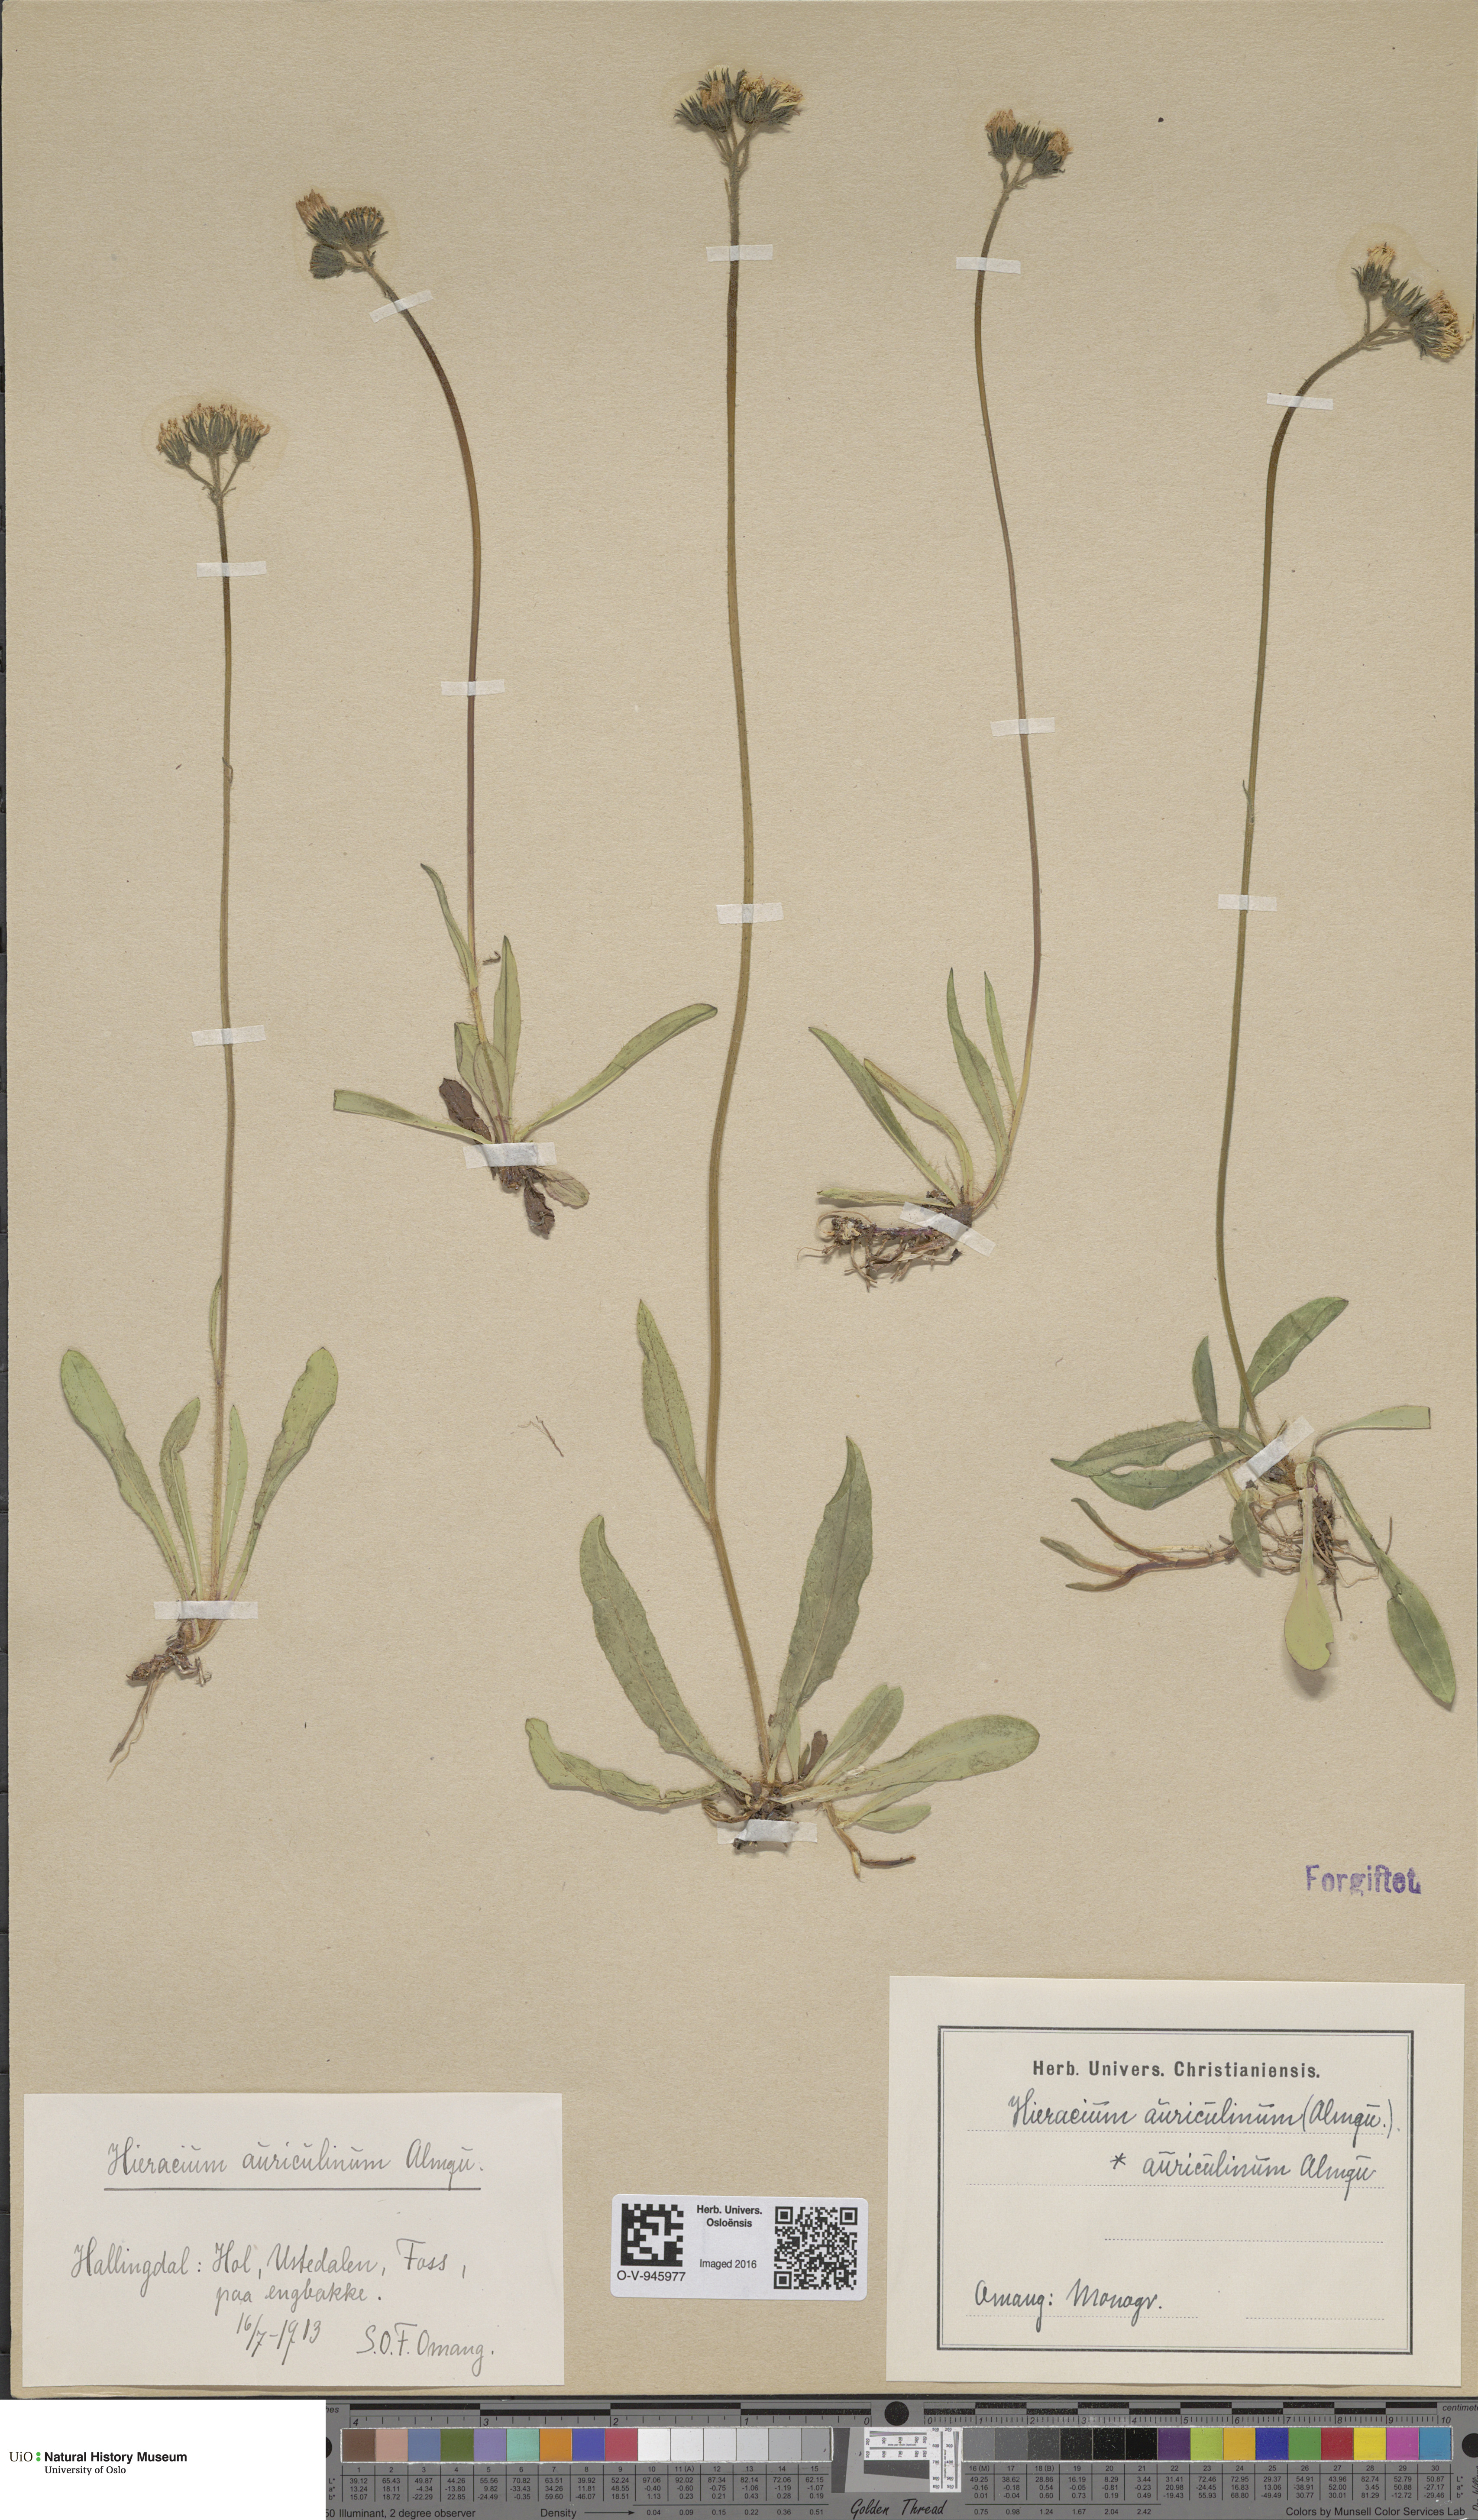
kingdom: Plantae
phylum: Tracheophyta
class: Magnoliopsida
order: Asterales
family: Asteraceae
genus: Pilosella
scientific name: Pilosella dubia
